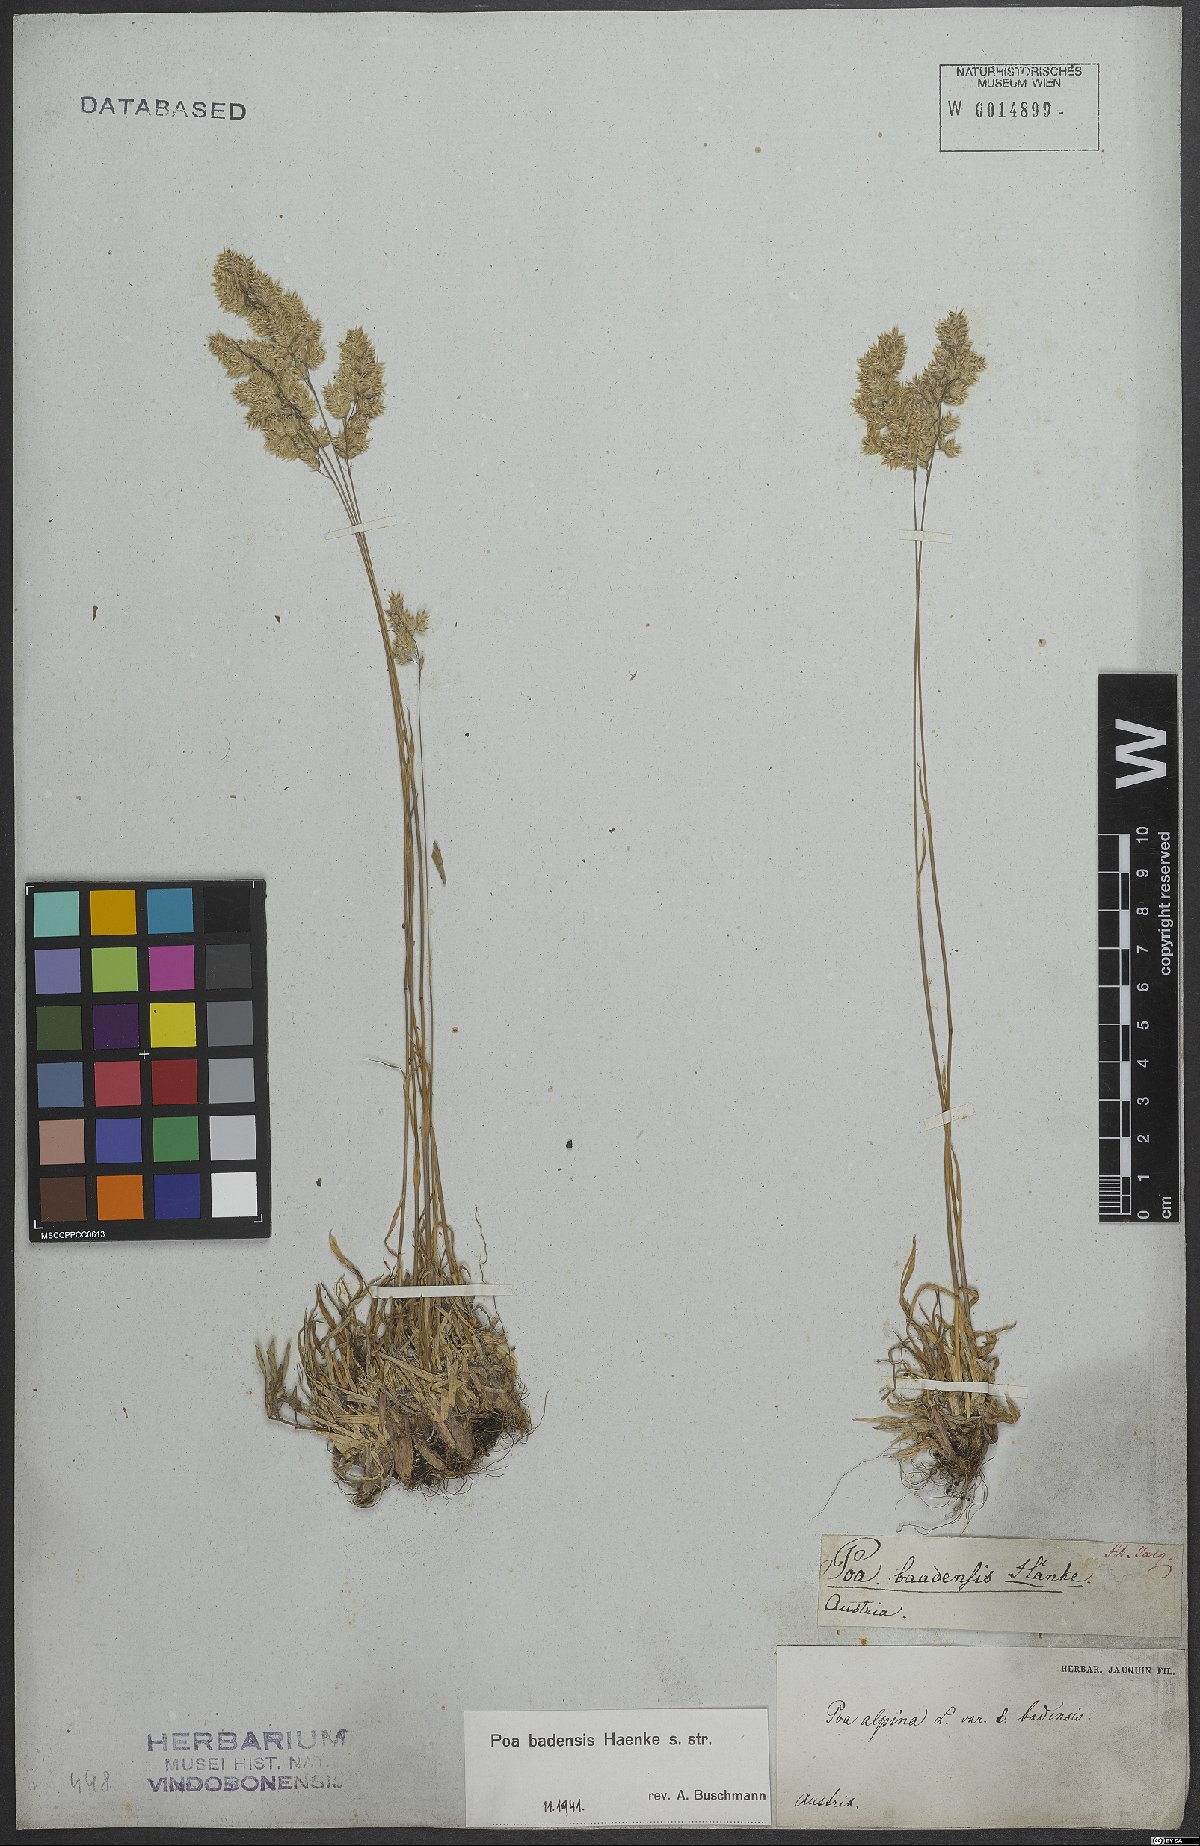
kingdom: Plantae
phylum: Tracheophyta
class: Liliopsida
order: Poales
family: Poaceae
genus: Poa
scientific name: Poa badensis
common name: Baden's bluegrass
